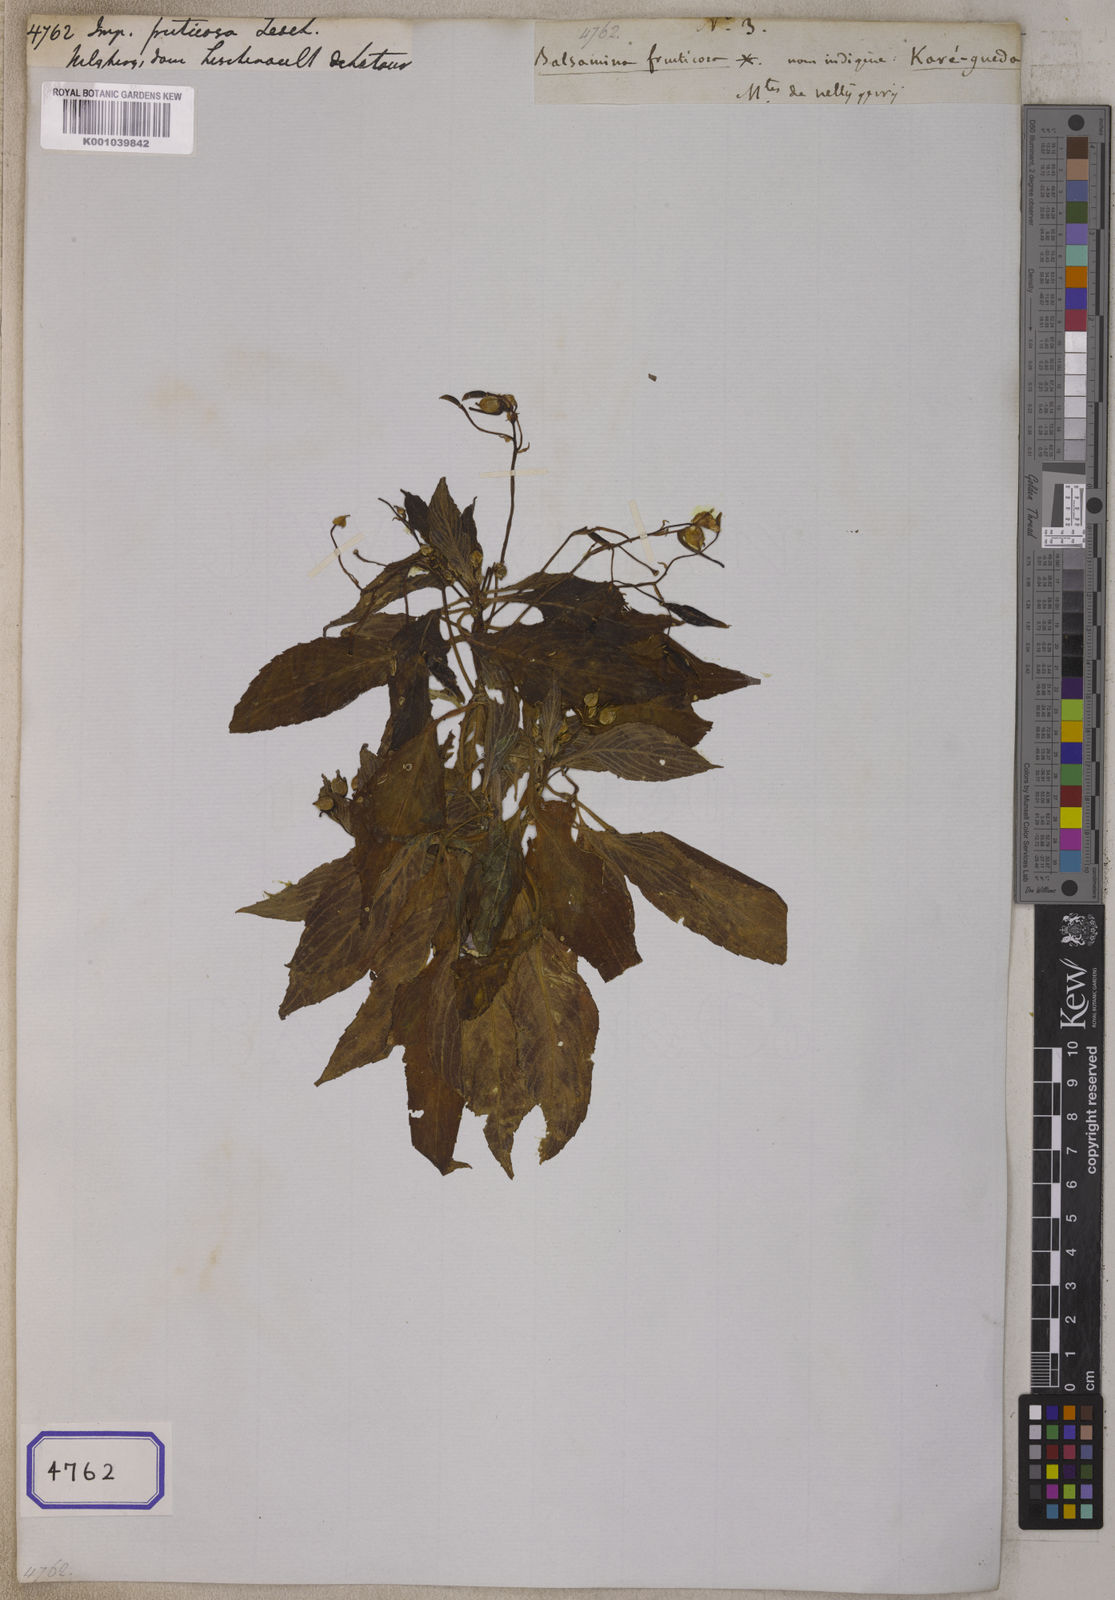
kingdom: Plantae
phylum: Tracheophyta
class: Magnoliopsida
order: Ericales
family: Balsaminaceae
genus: Impatiens
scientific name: Impatiens fruticosa
